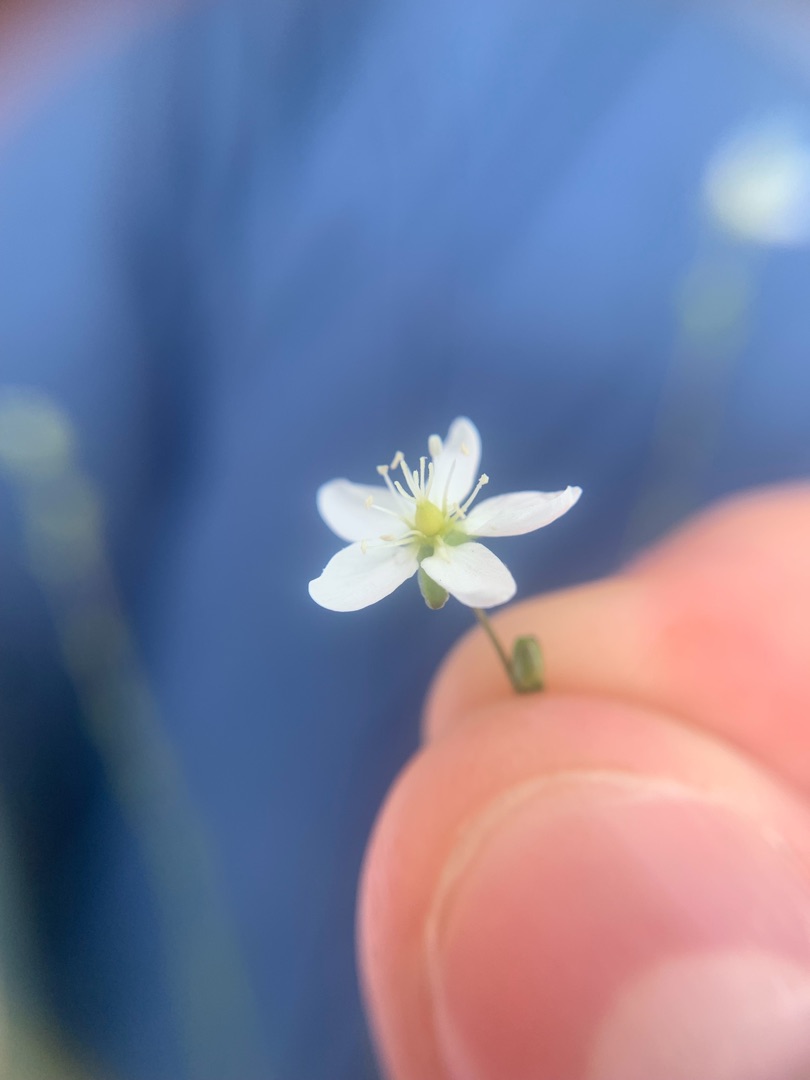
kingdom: Plantae
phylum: Tracheophyta
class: Magnoliopsida
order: Caryophyllales
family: Caryophyllaceae
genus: Sagina
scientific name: Sagina nodosa
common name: Knude-firling
